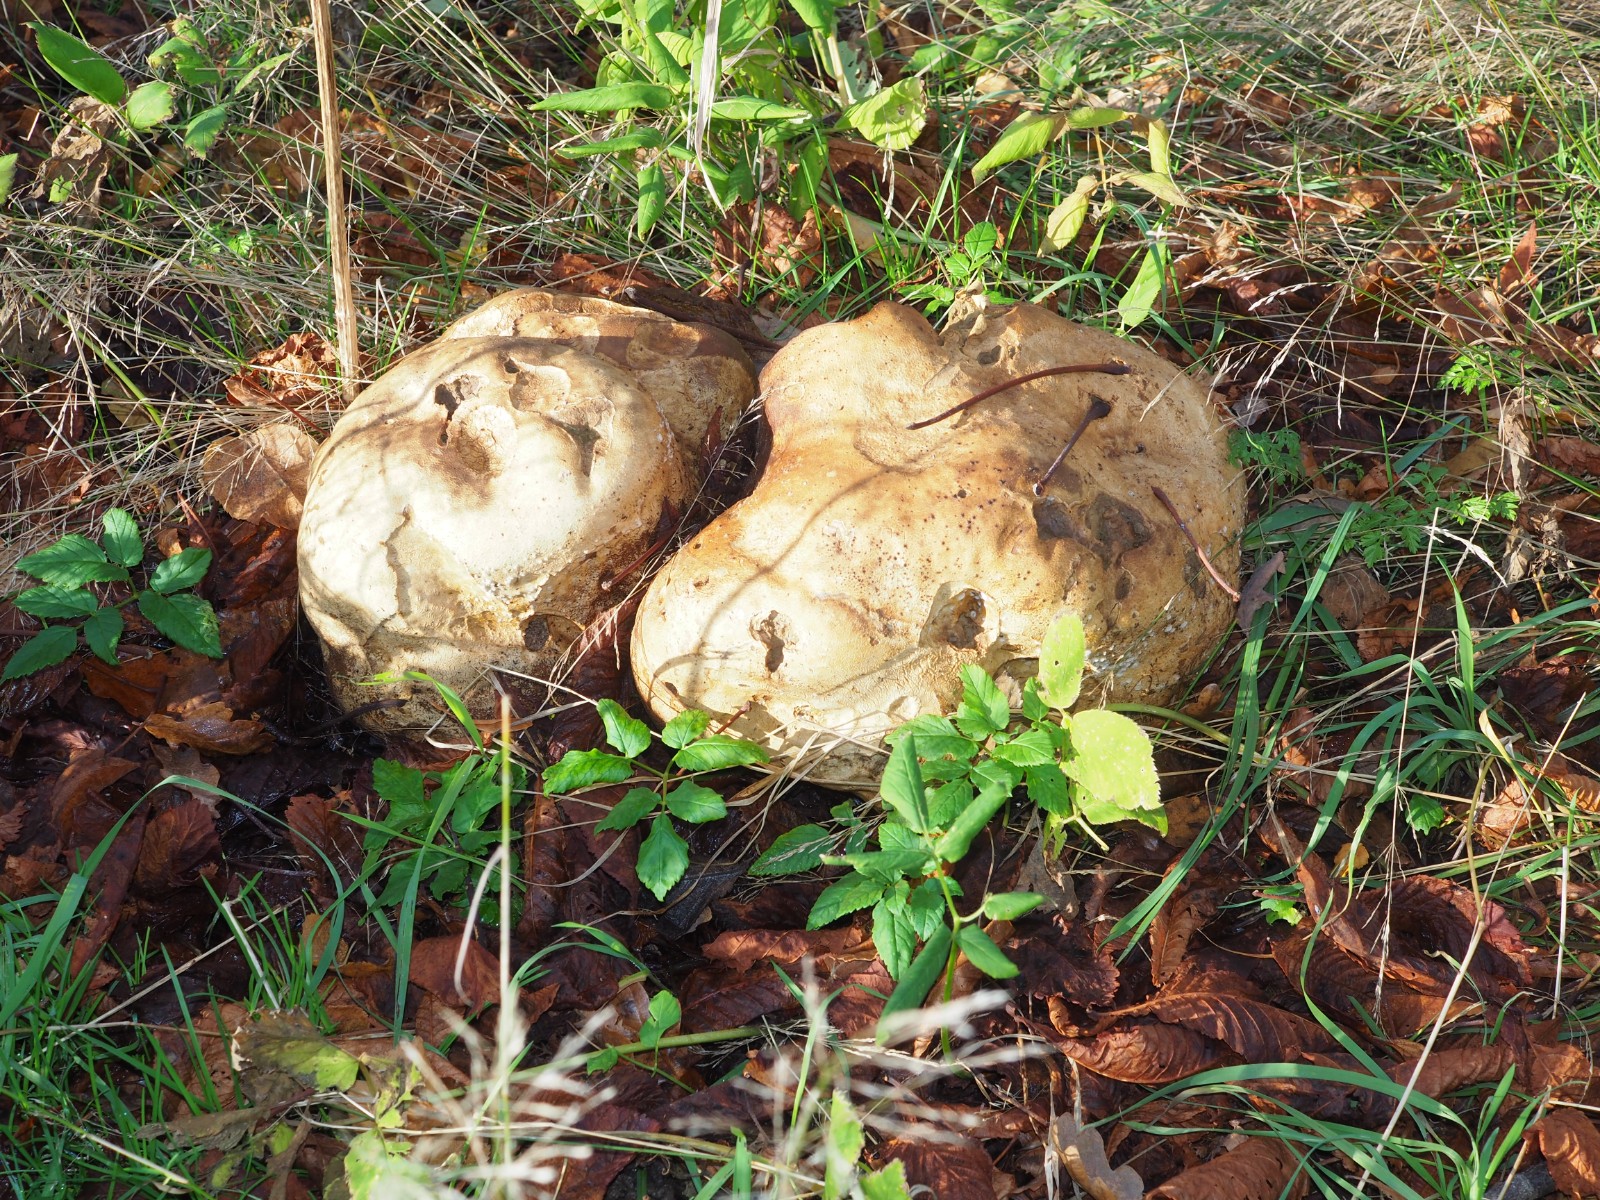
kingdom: Fungi
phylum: Basidiomycota
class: Agaricomycetes
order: Agaricales
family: Lycoperdaceae
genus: Calvatia
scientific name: Calvatia gigantea
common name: kæmpestøvbold
